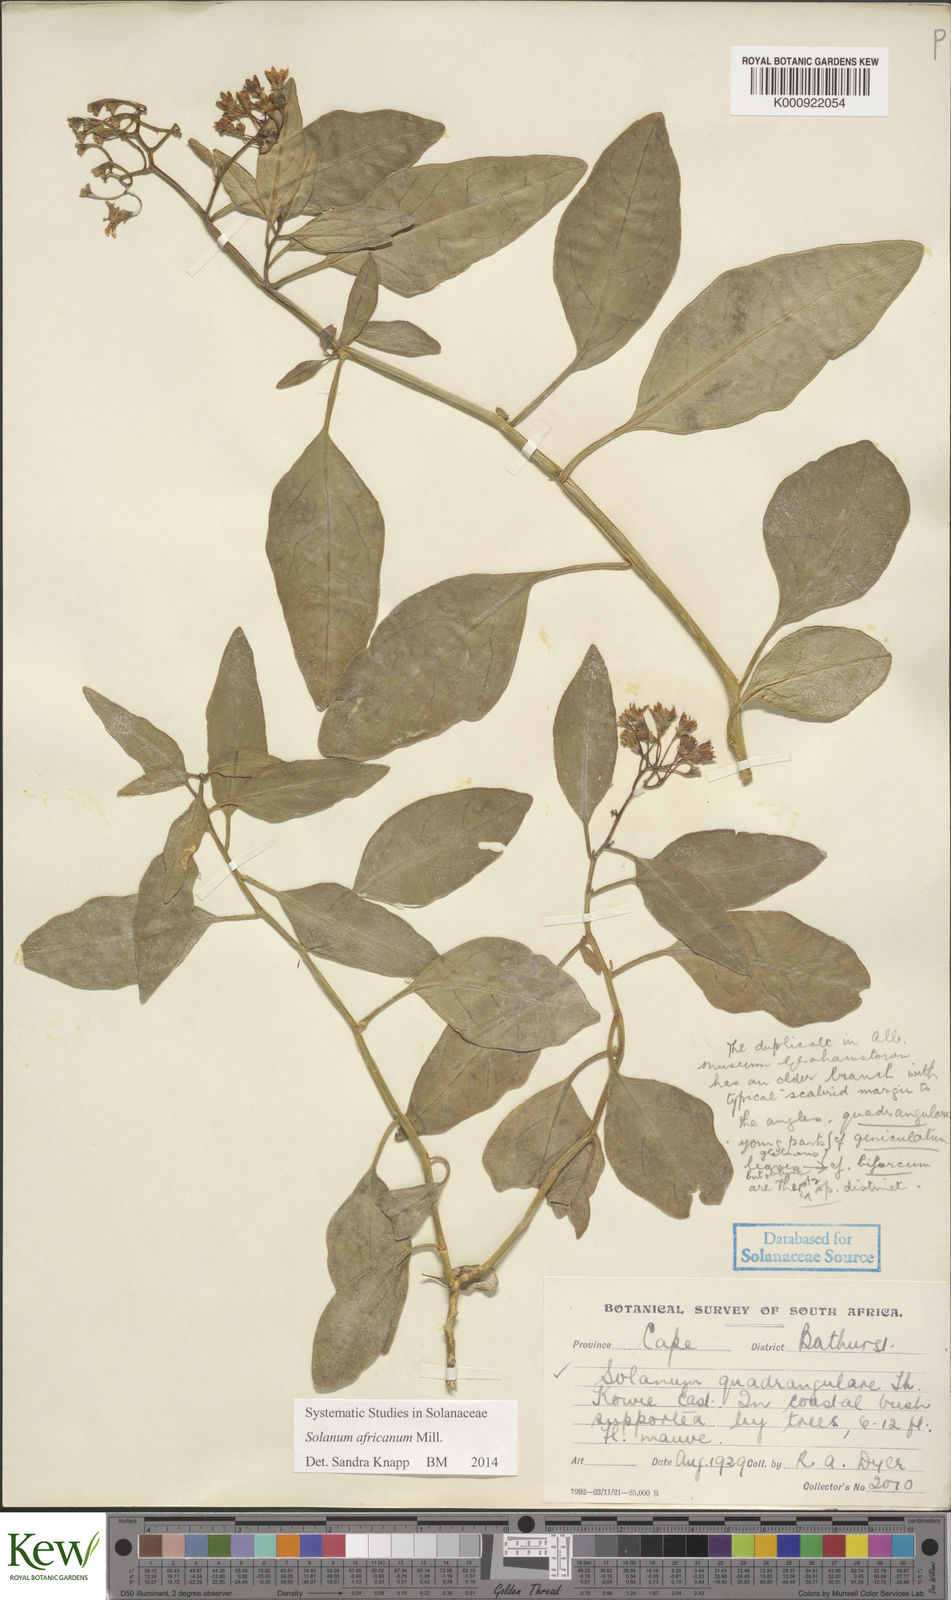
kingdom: Plantae
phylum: Tracheophyta
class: Magnoliopsida
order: Solanales
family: Solanaceae
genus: Solanum
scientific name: Solanum africanum
